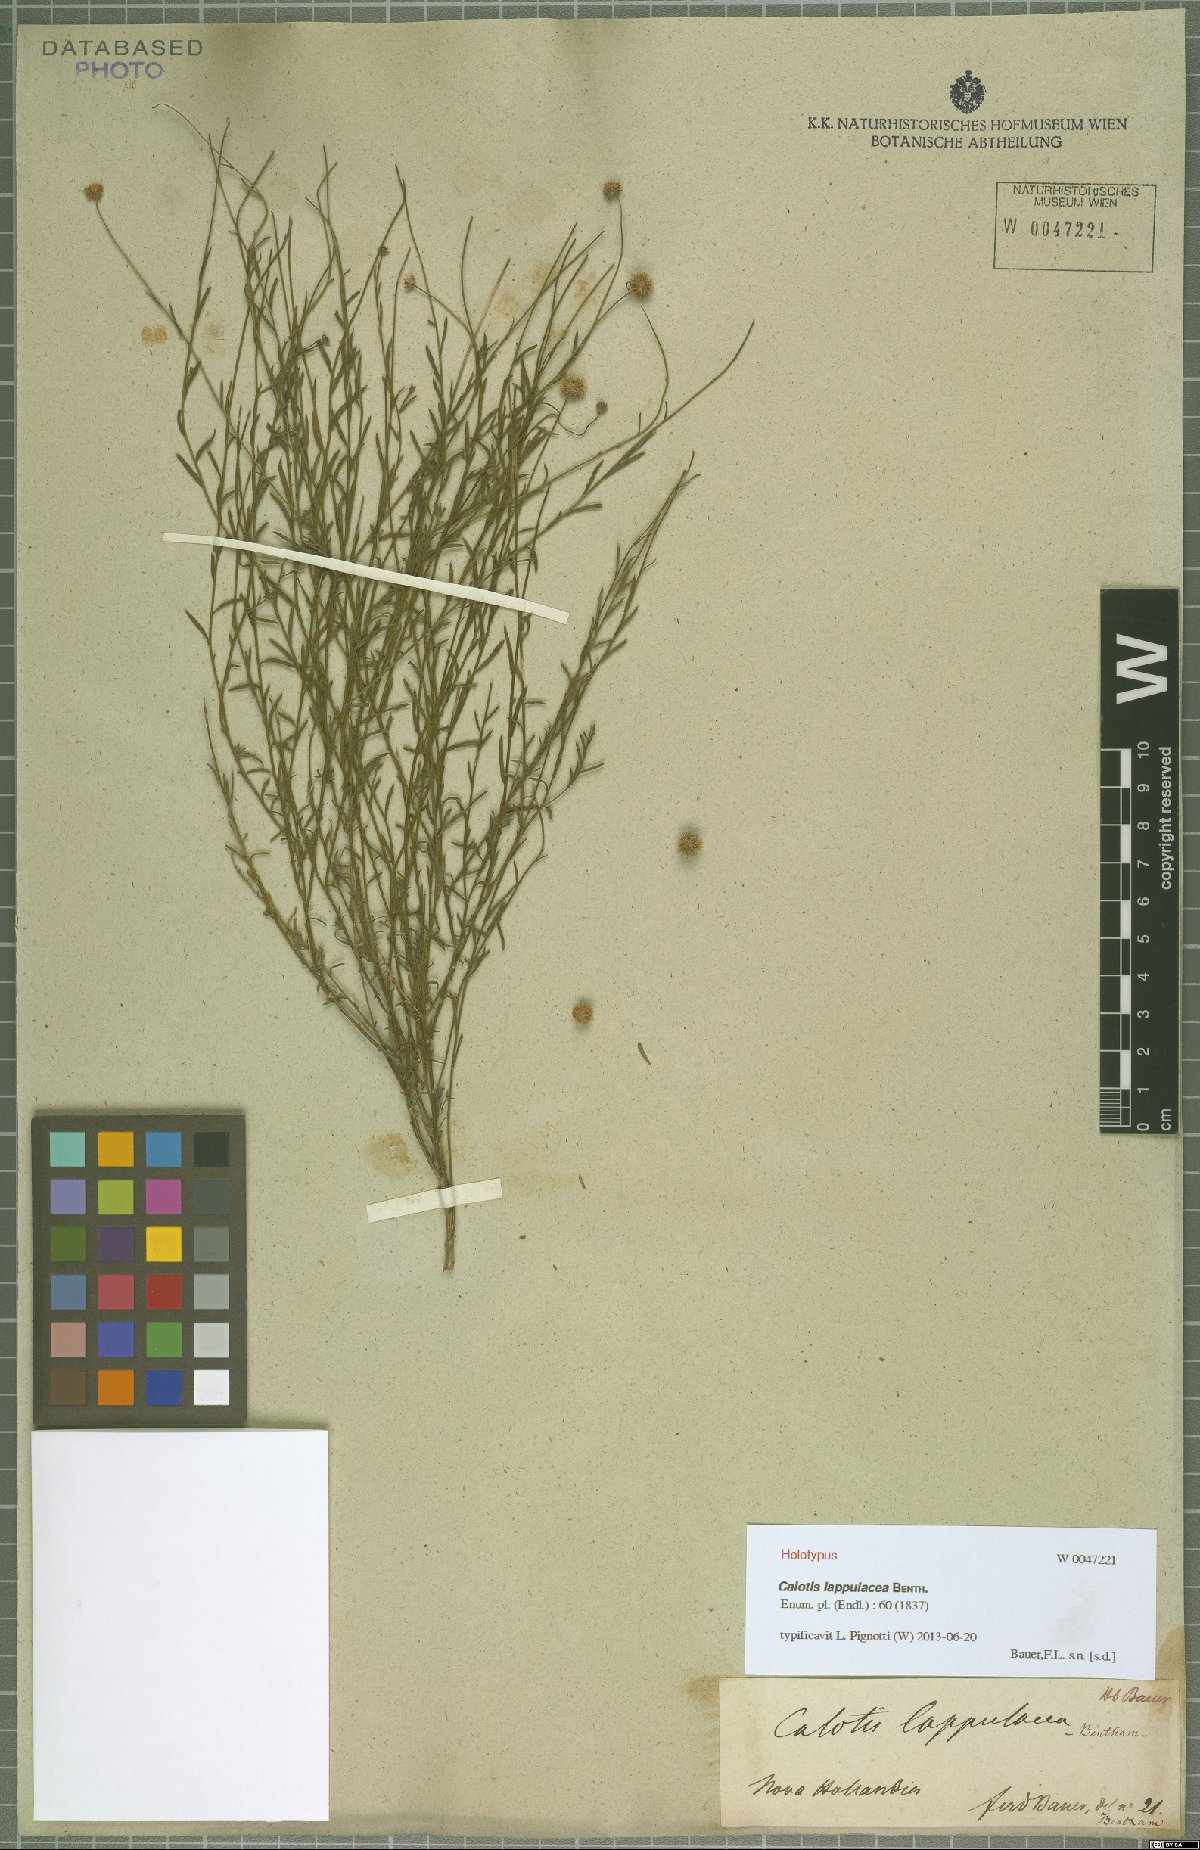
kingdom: Plantae
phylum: Tracheophyta
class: Magnoliopsida
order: Asterales
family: Asteraceae
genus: Calotis
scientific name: Calotis lappulacea
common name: Bur daisy
